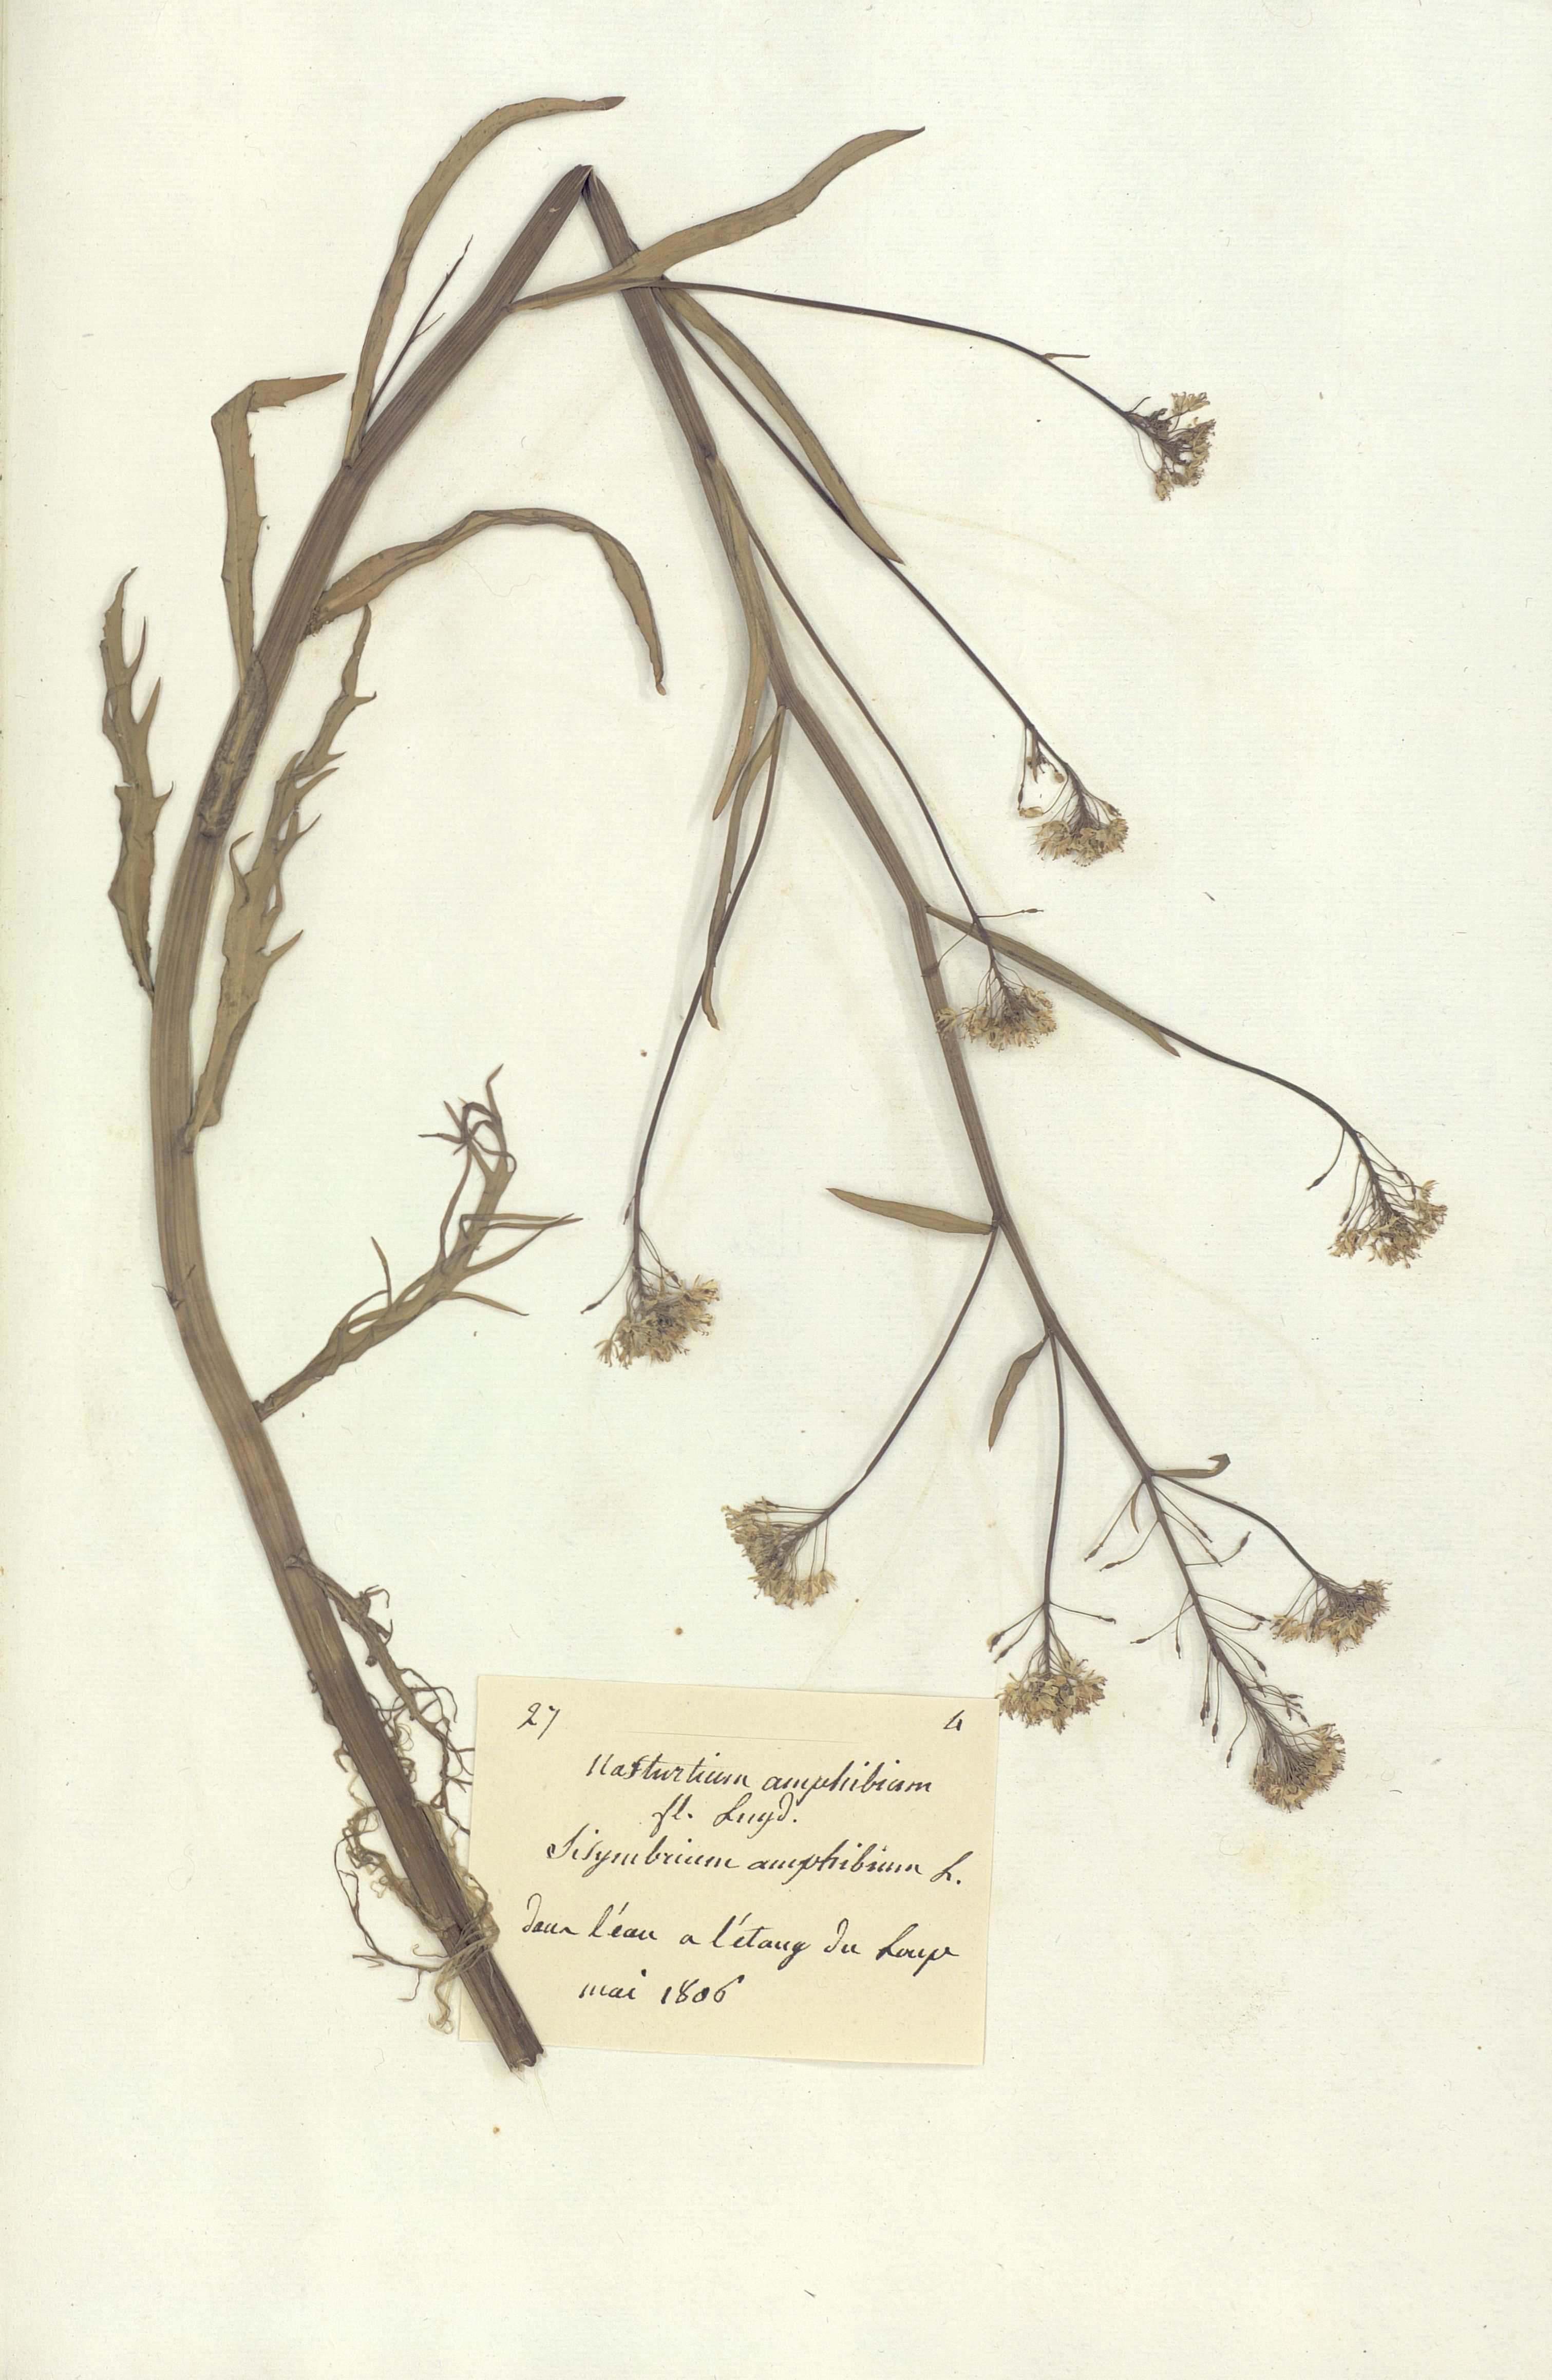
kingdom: Plantae
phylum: Tracheophyta
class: Magnoliopsida
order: Brassicales
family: Brassicaceae
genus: Rorippa
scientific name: Rorippa amphibia
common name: Great yellow-cress
